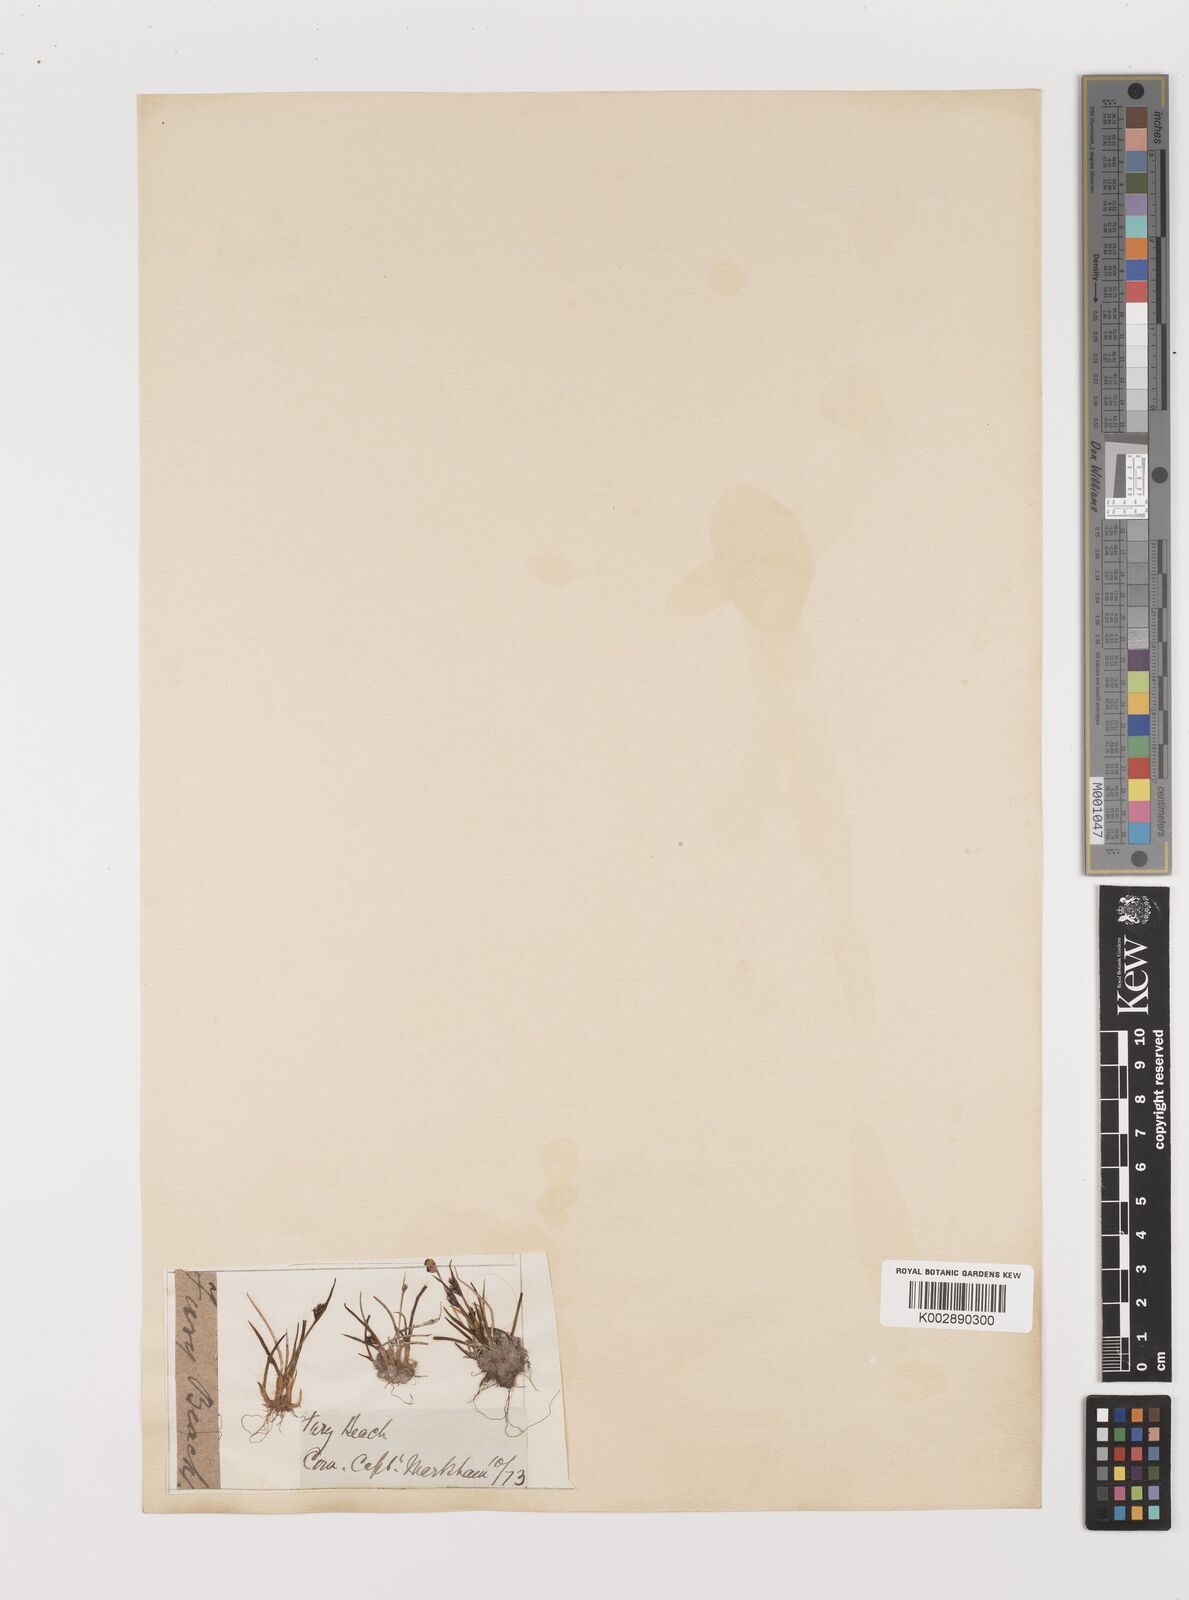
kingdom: Plantae
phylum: Tracheophyta
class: Liliopsida
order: Poales
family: Juncaceae
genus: Juncus
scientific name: Juncus biglumis
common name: Two-flowered rush
